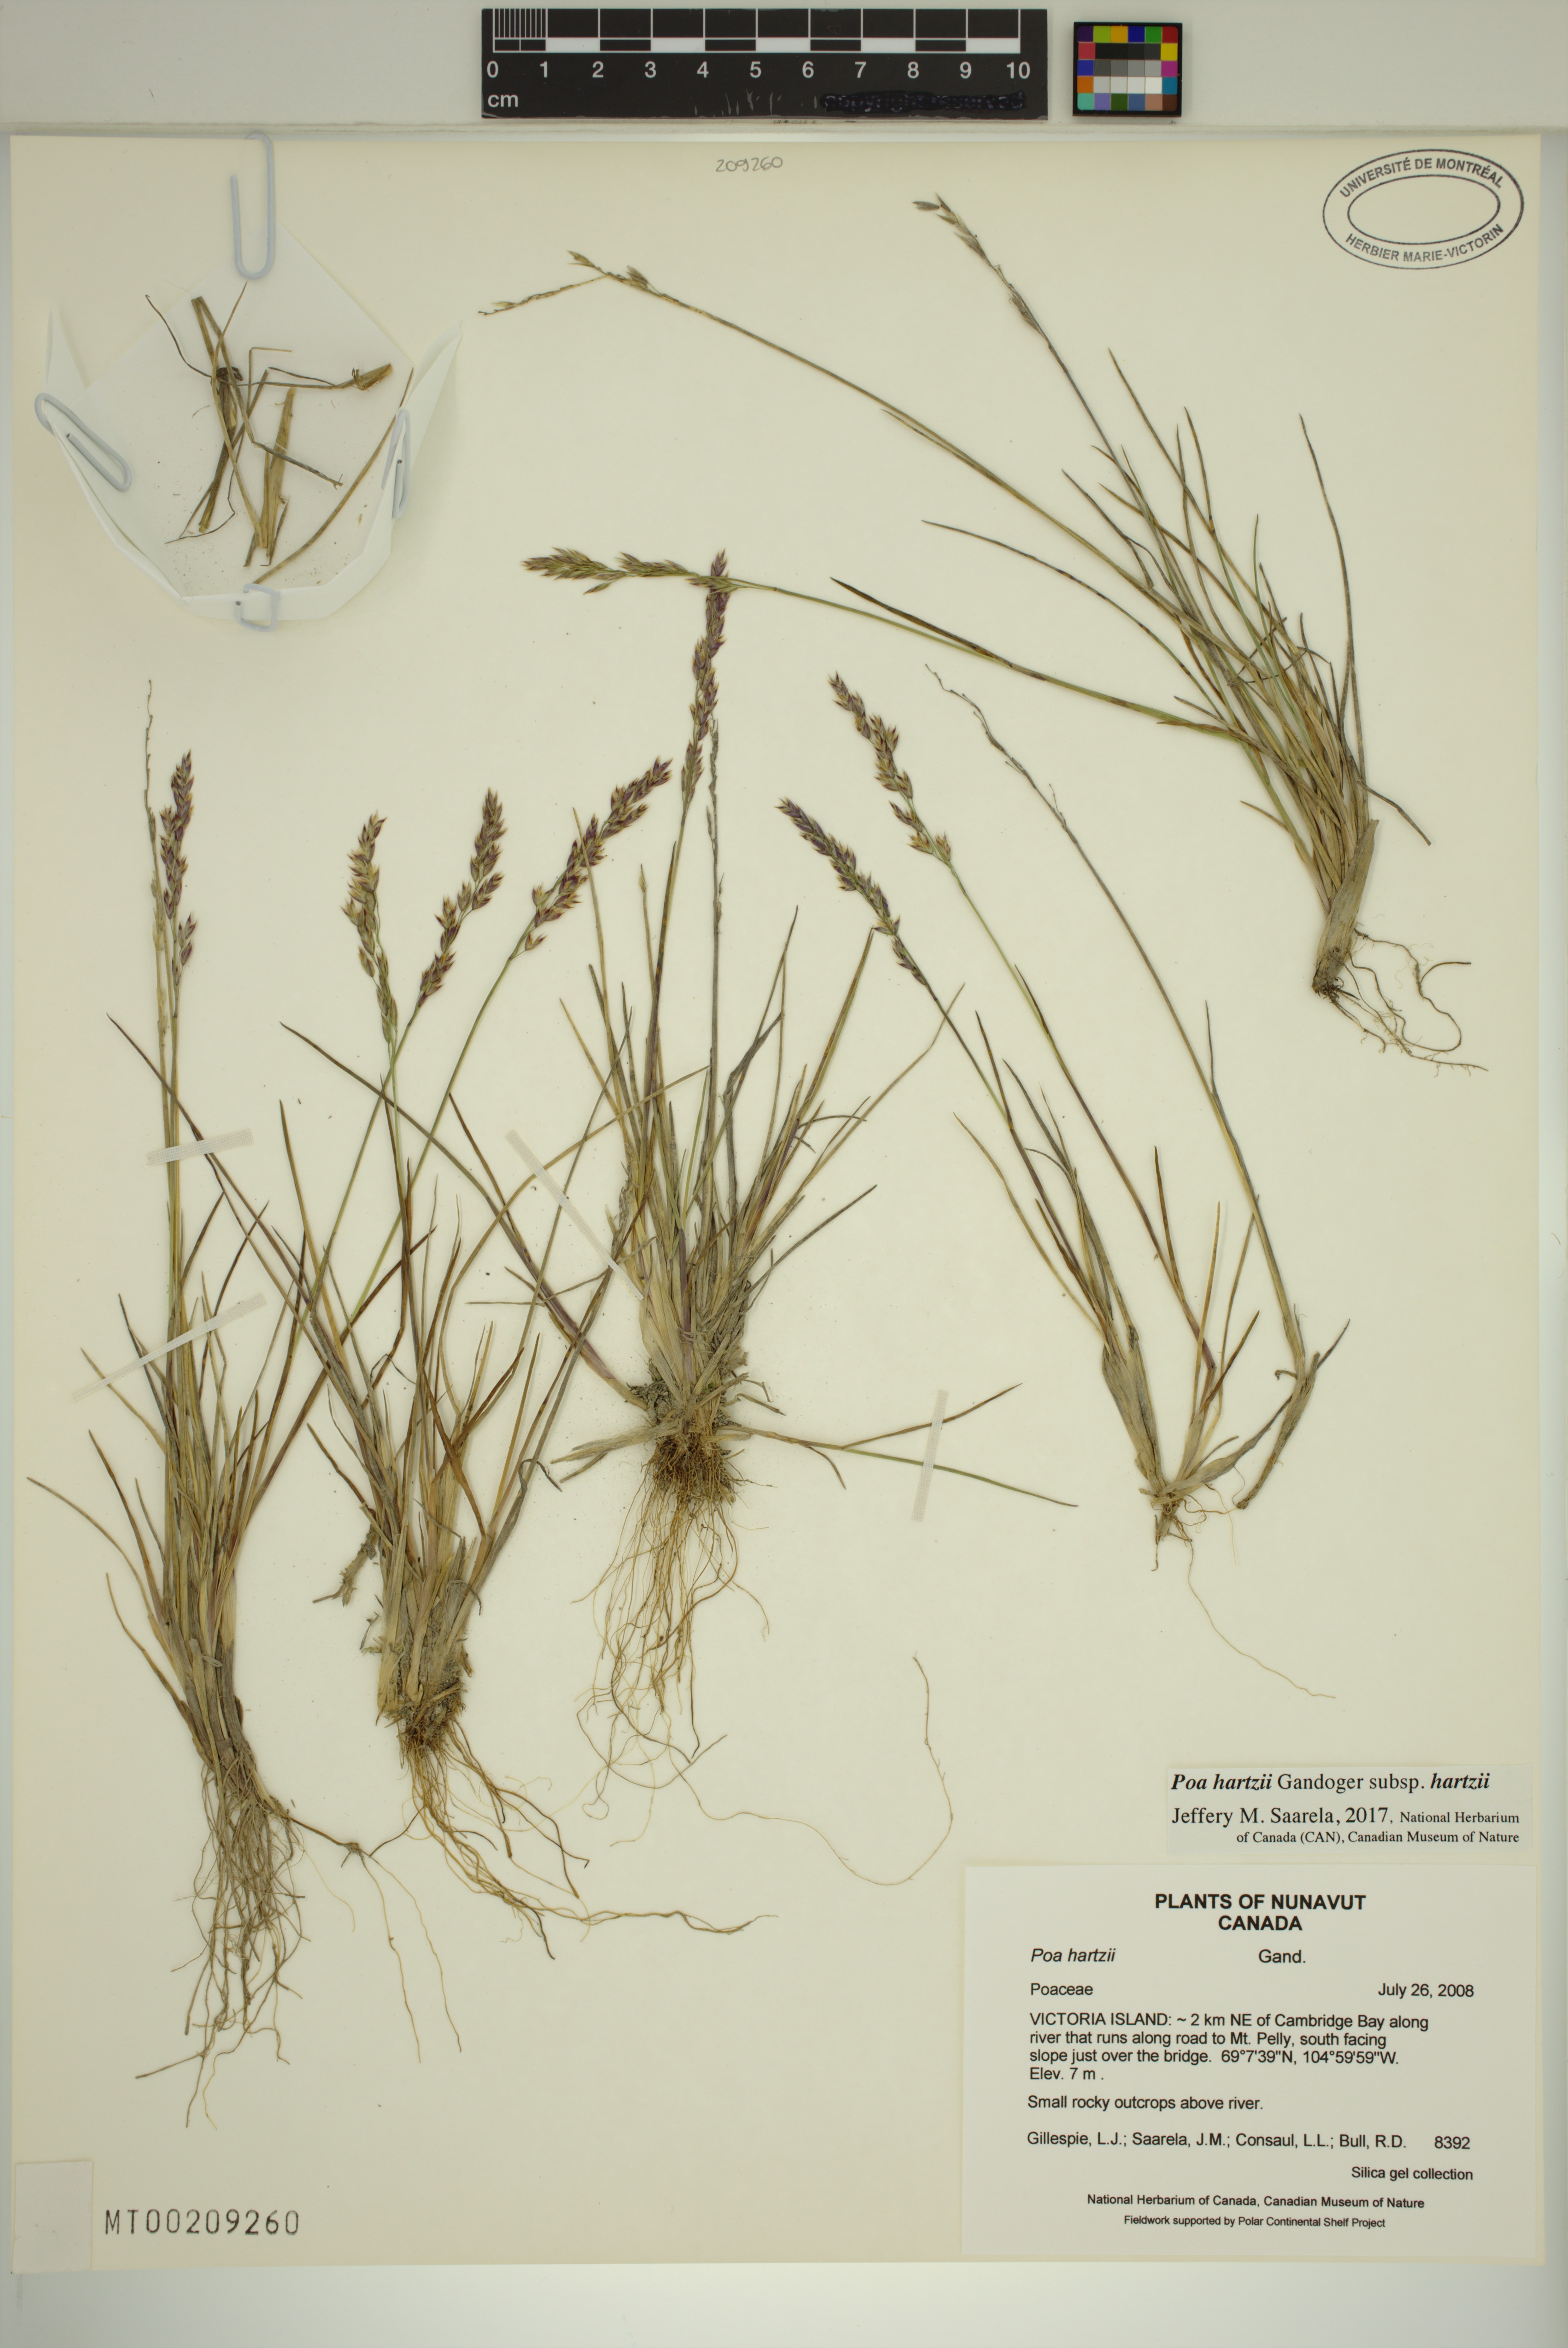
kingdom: Plantae
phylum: Tracheophyta
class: Liliopsida
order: Poales
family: Poaceae
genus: Poa
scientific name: Poa hartzii
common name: Hartz's bluegrass
